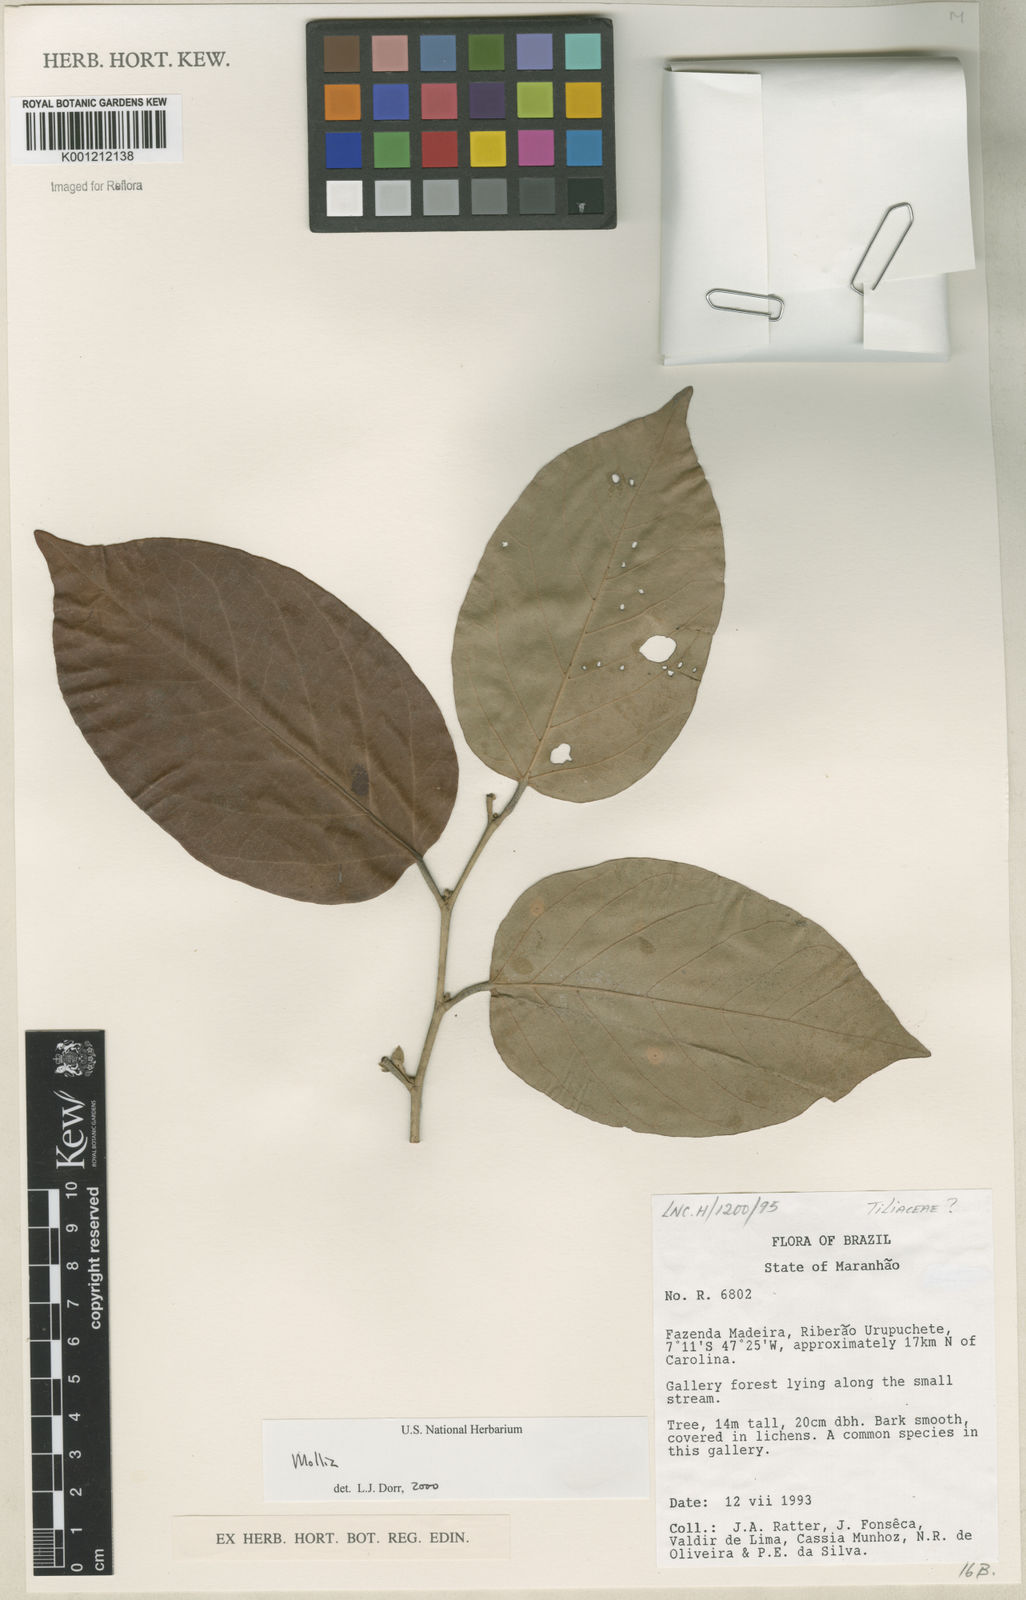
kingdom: Plantae
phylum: Tracheophyta
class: Magnoliopsida
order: Malvales
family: Malvaceae
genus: Mollia
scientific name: Mollia
